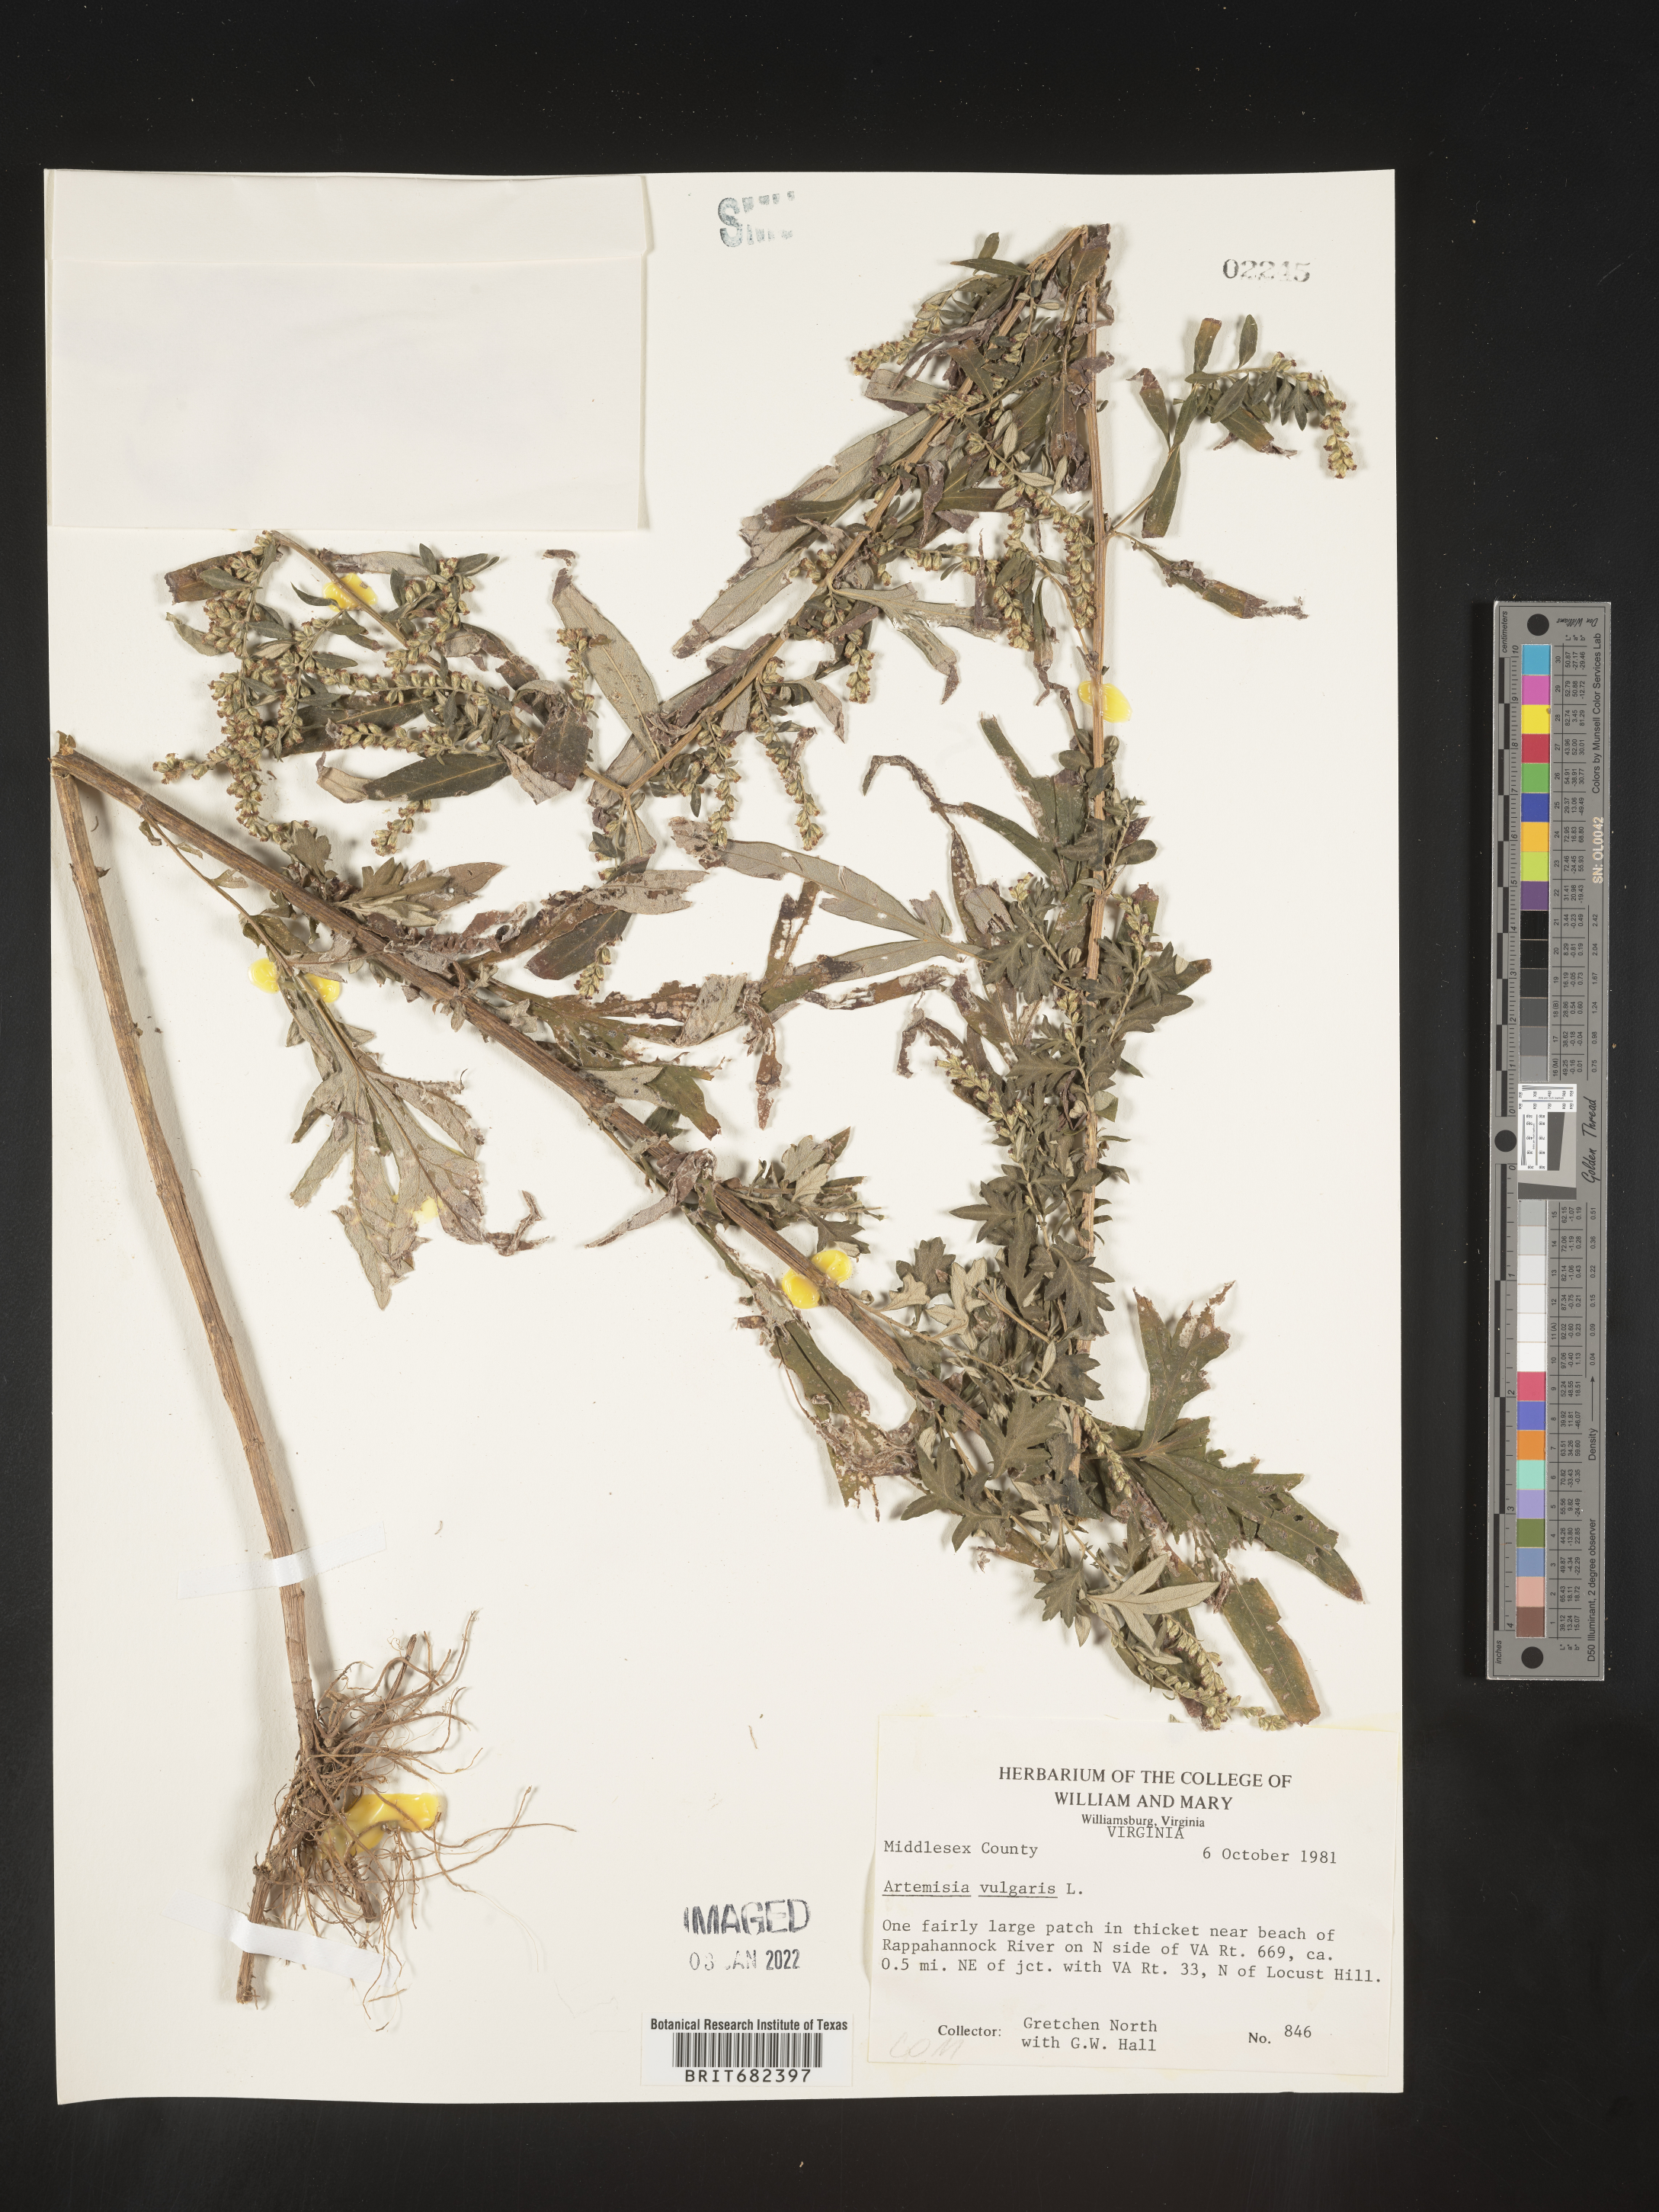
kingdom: Plantae
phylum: Tracheophyta
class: Magnoliopsida
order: Asterales
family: Asteraceae
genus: Artemisia
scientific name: Artemisia vulgaris
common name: Mugwort
